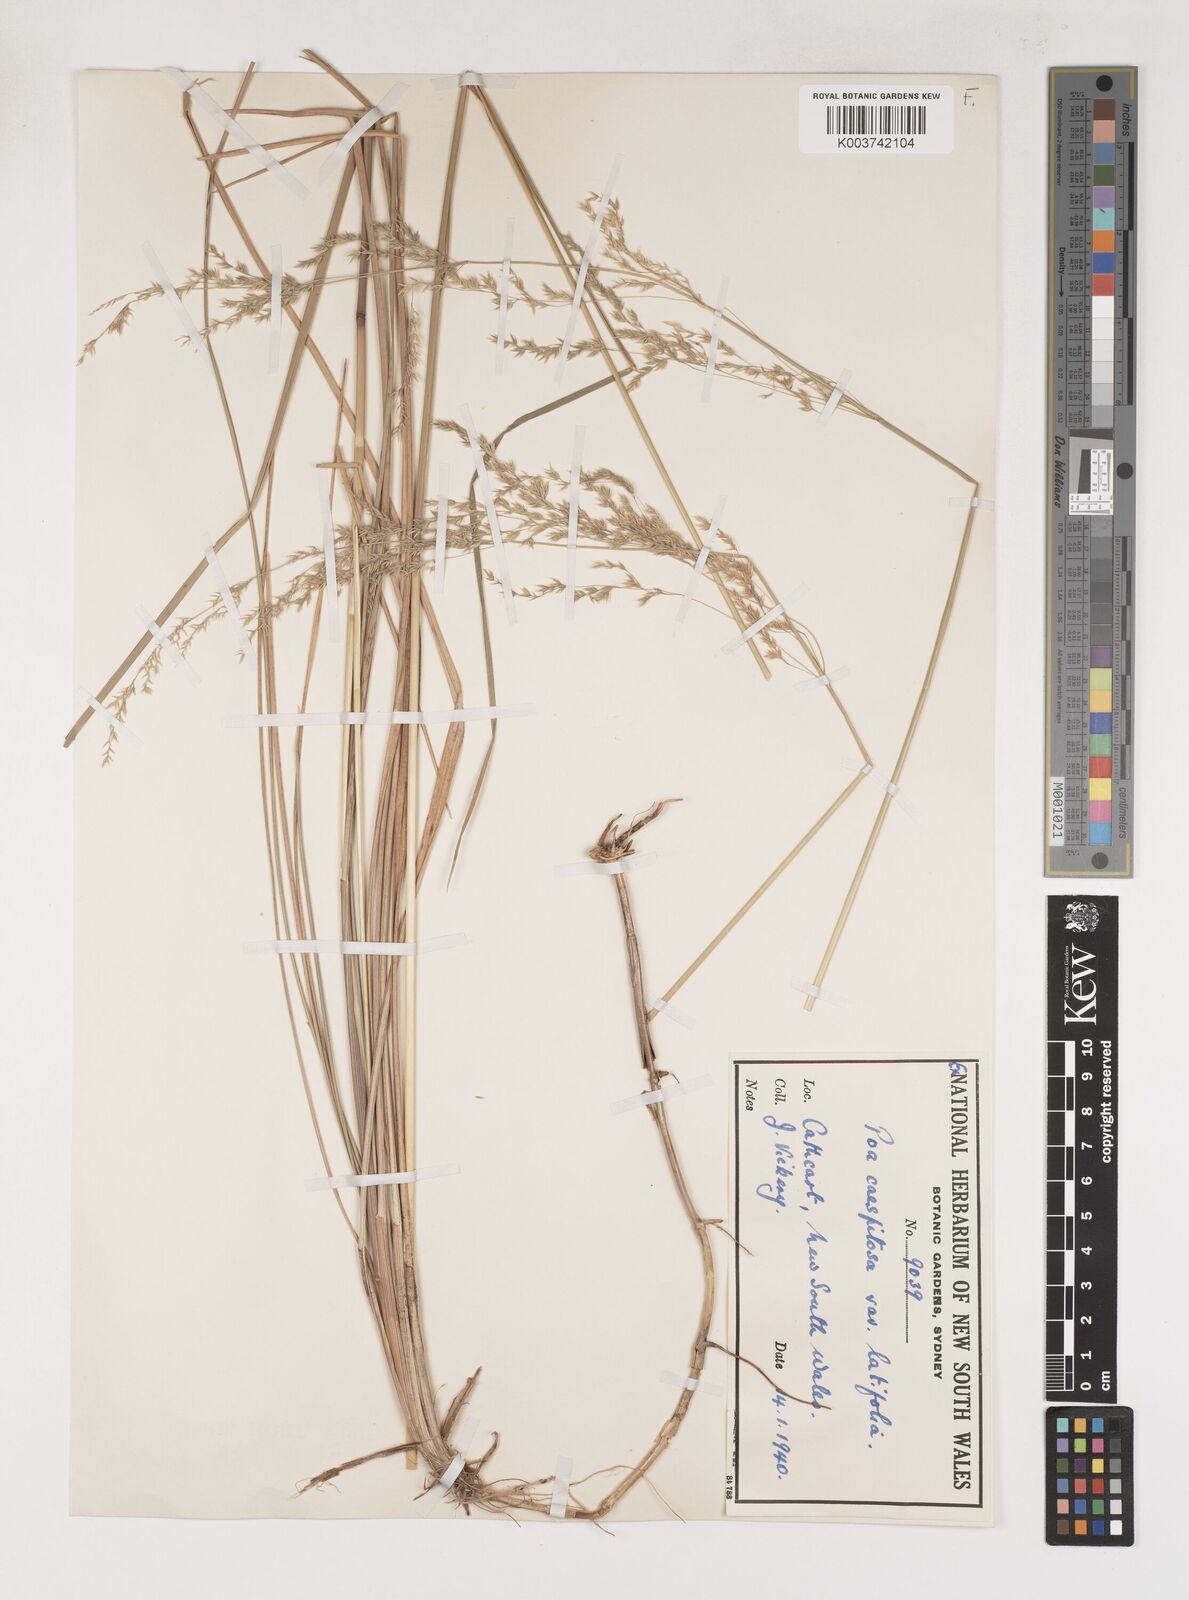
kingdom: Plantae
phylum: Tracheophyta
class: Liliopsida
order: Poales
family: Poaceae
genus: Poa
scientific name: Poa ensiformis
